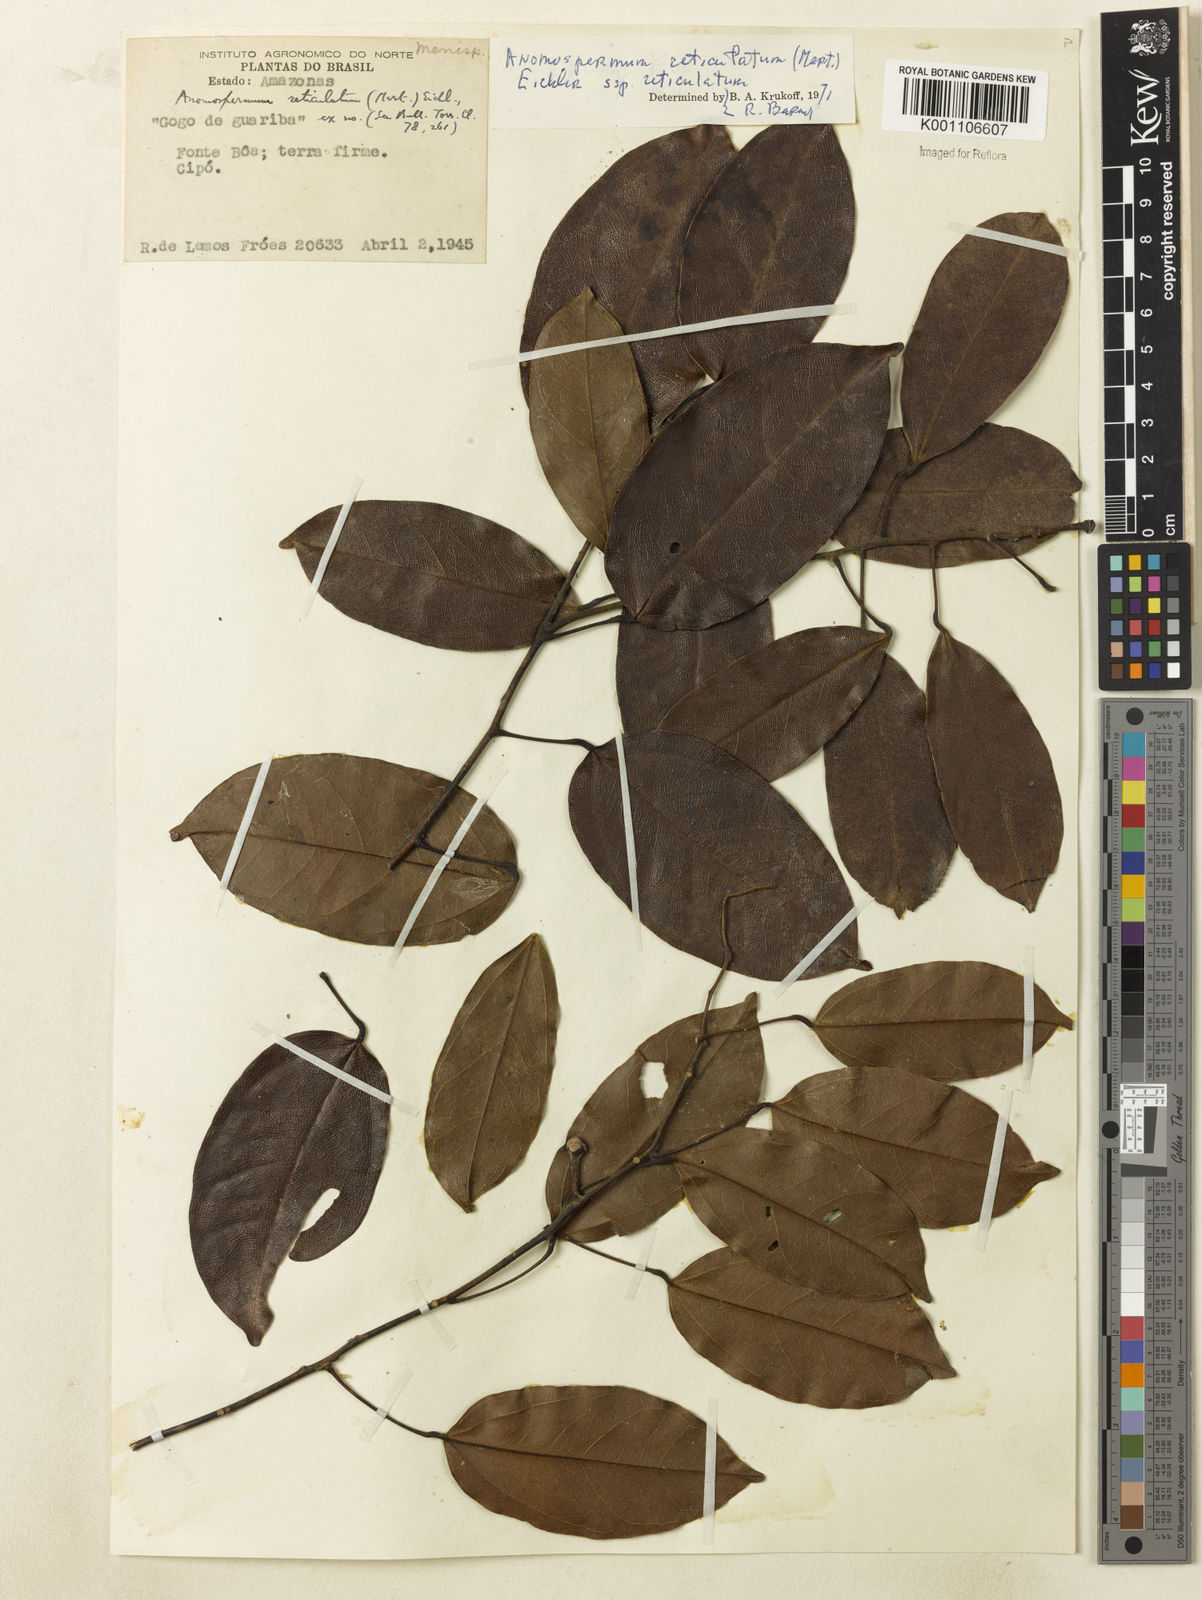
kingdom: Plantae
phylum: Tracheophyta
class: Magnoliopsida
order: Ranunculales
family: Menispermaceae
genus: Anomospermum
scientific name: Anomospermum reticulatum
